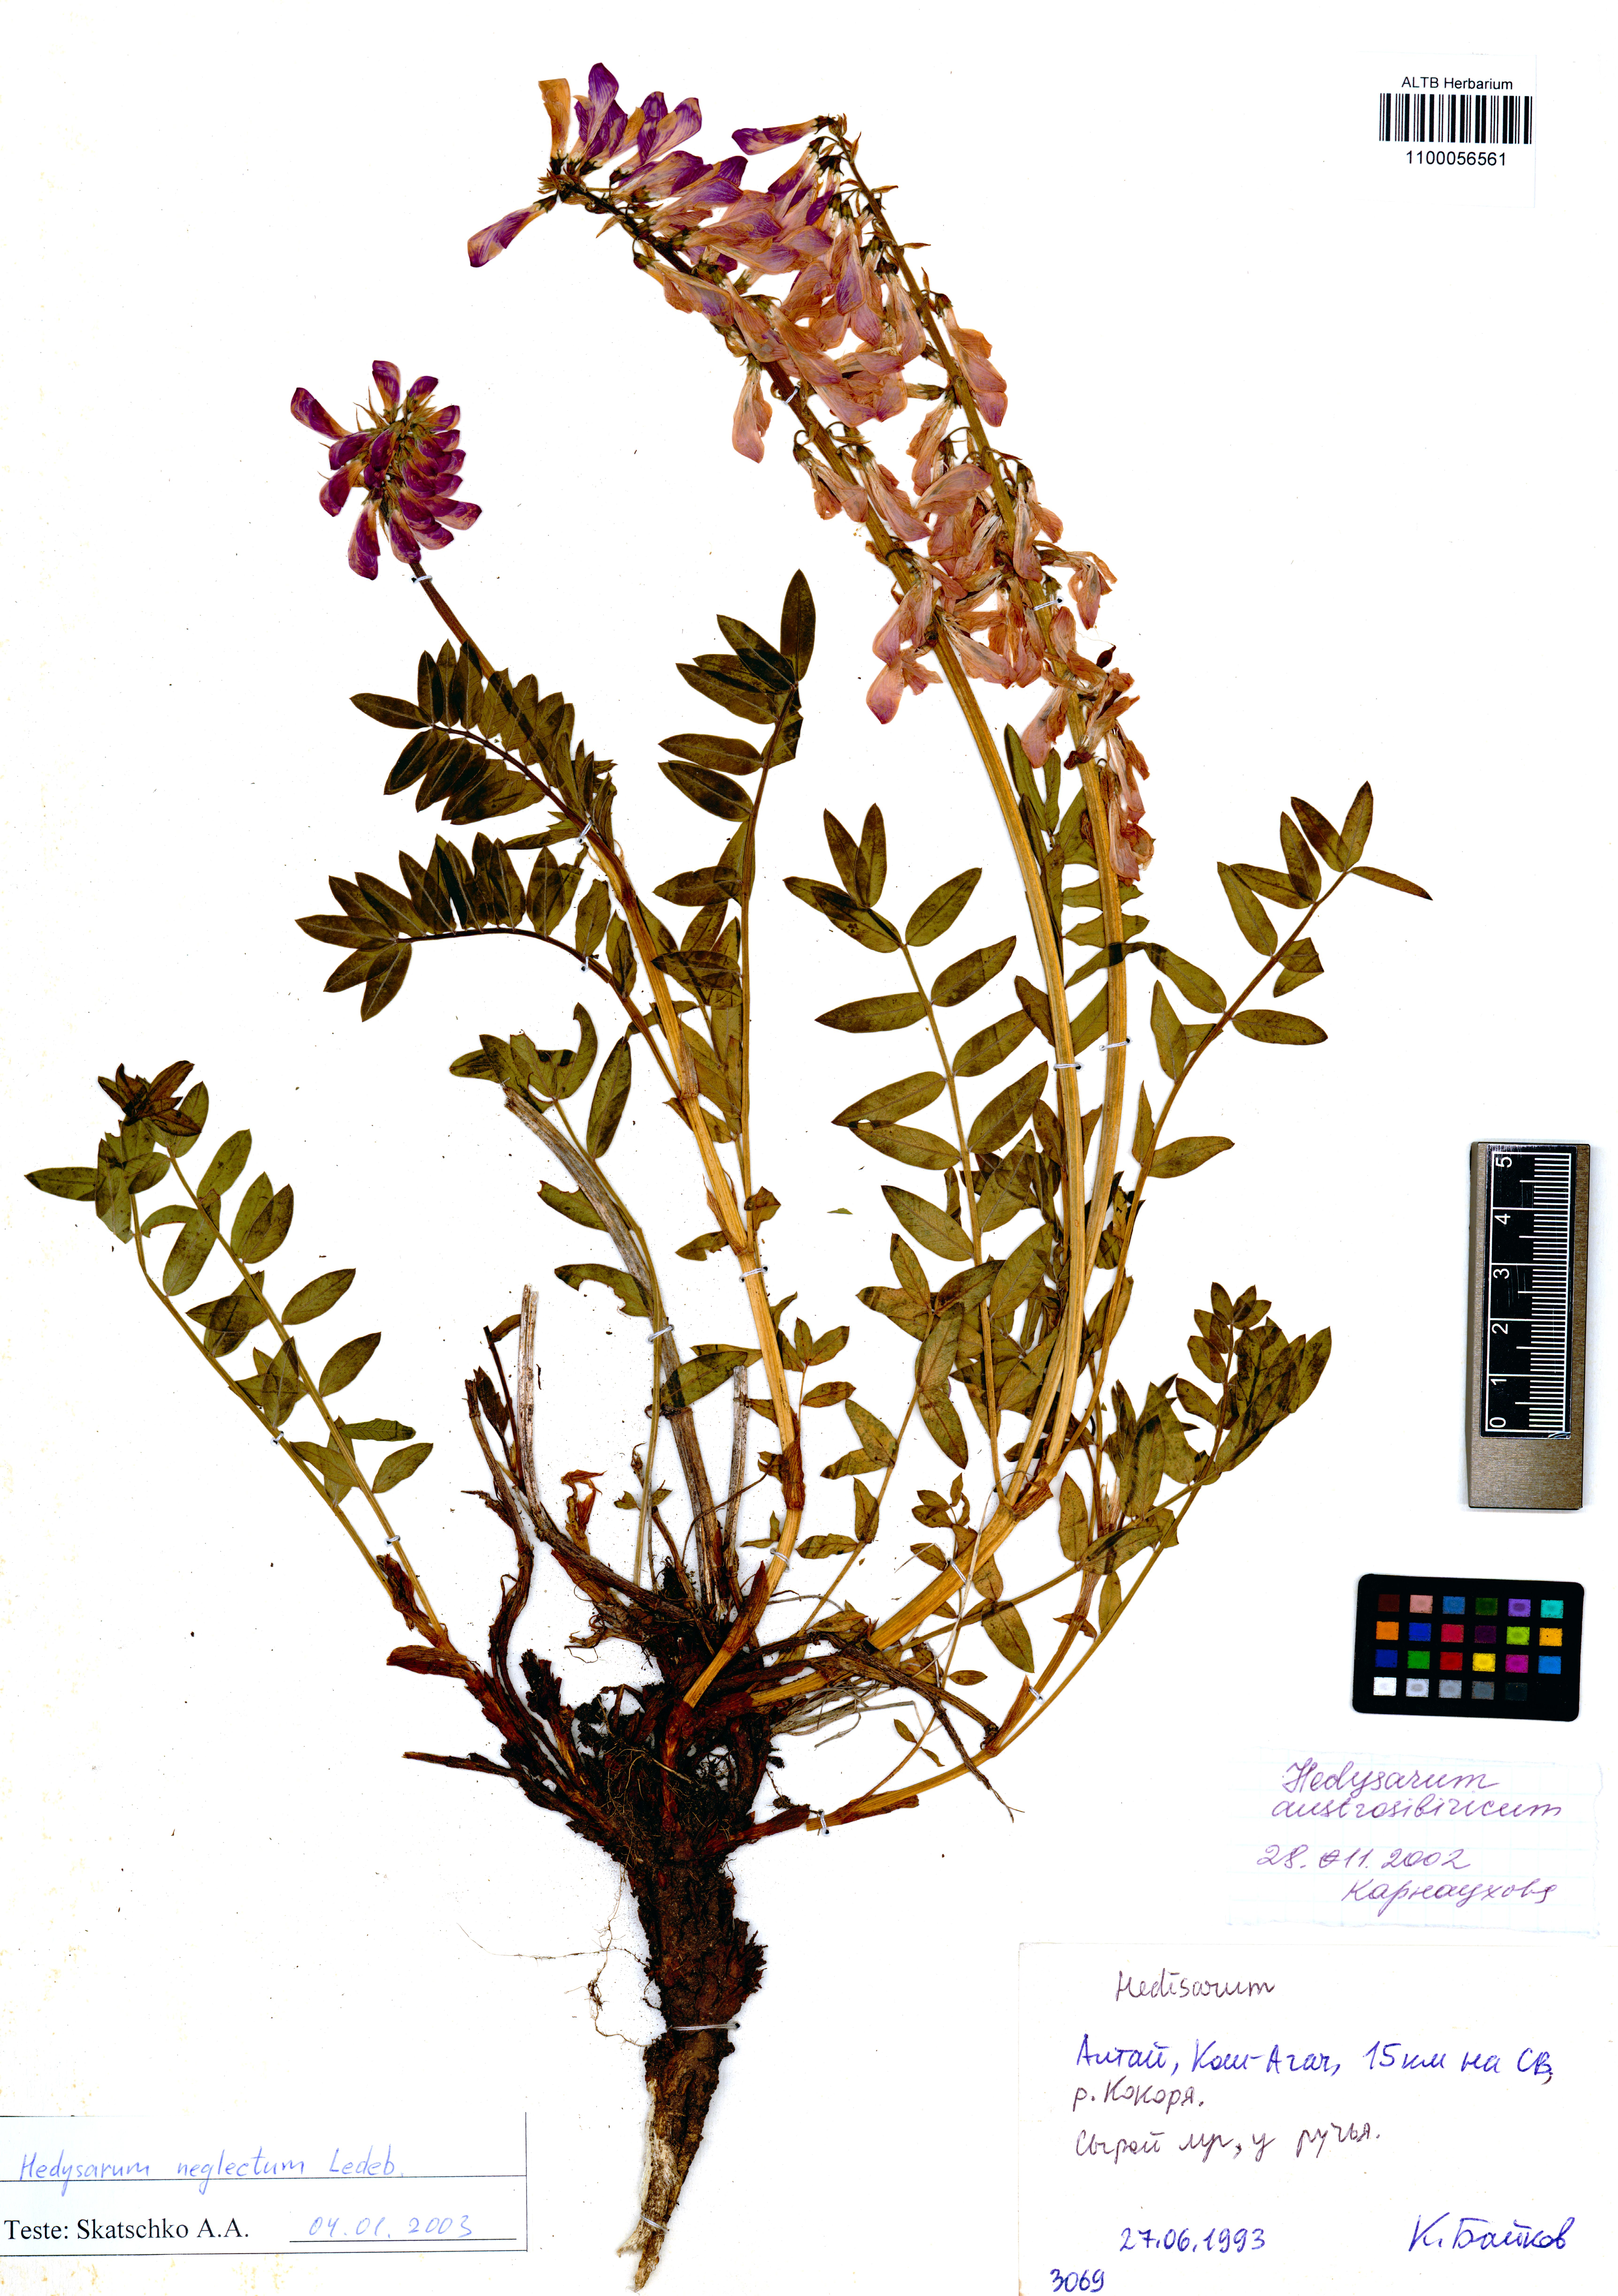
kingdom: Plantae
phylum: Tracheophyta
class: Magnoliopsida
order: Fabales
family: Fabaceae
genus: Hedysarum
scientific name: Hedysarum neglectum
